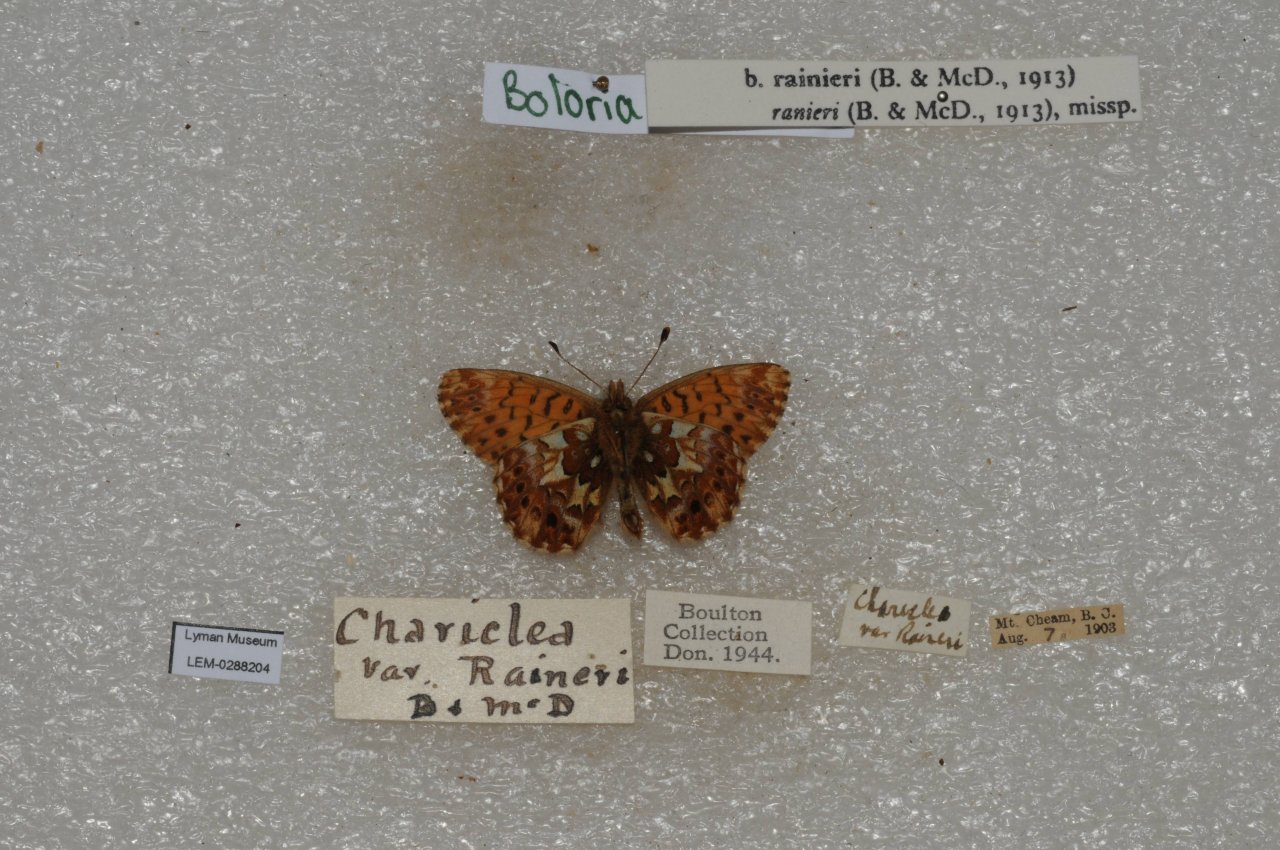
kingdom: Animalia
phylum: Arthropoda
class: Insecta
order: Lepidoptera
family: Nymphalidae
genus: Boloria
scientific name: Boloria chariclea
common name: Arctic Fritillary
